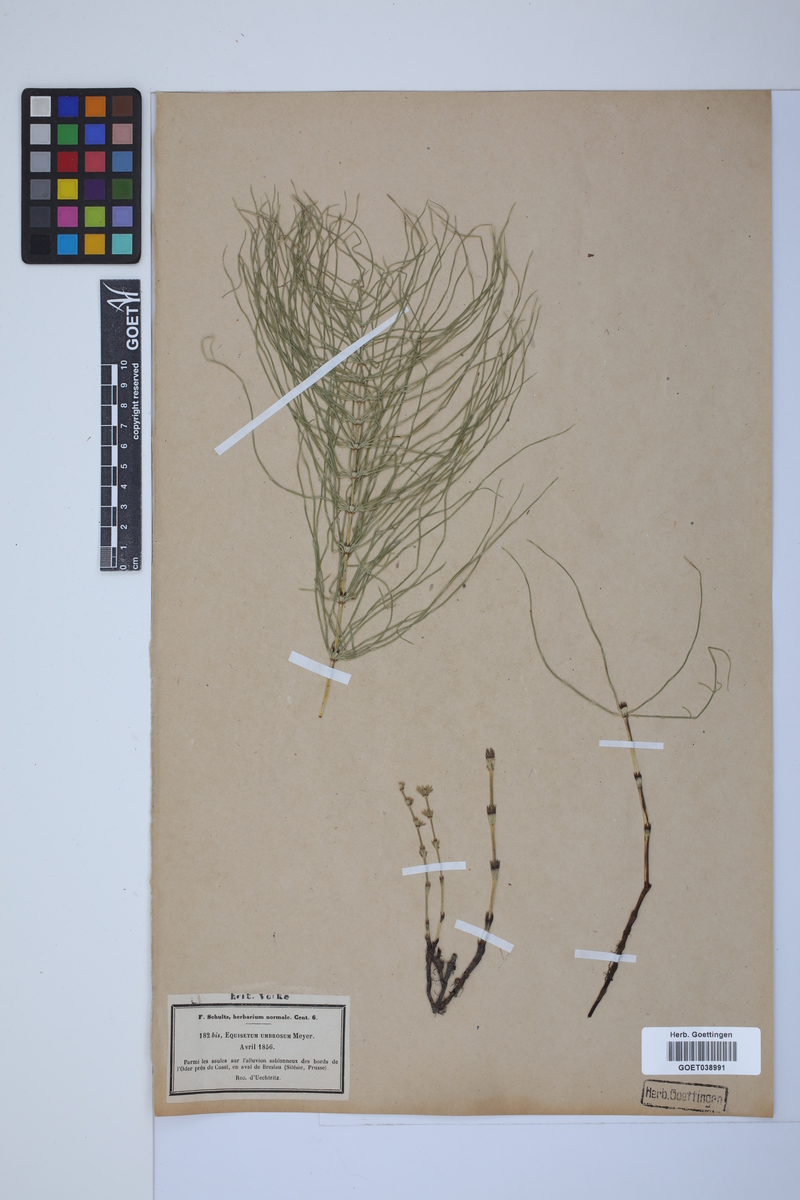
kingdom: Plantae
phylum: Tracheophyta
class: Polypodiopsida
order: Equisetales
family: Equisetaceae
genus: Equisetum
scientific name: Equisetum pratense
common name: Meadow horsetail
